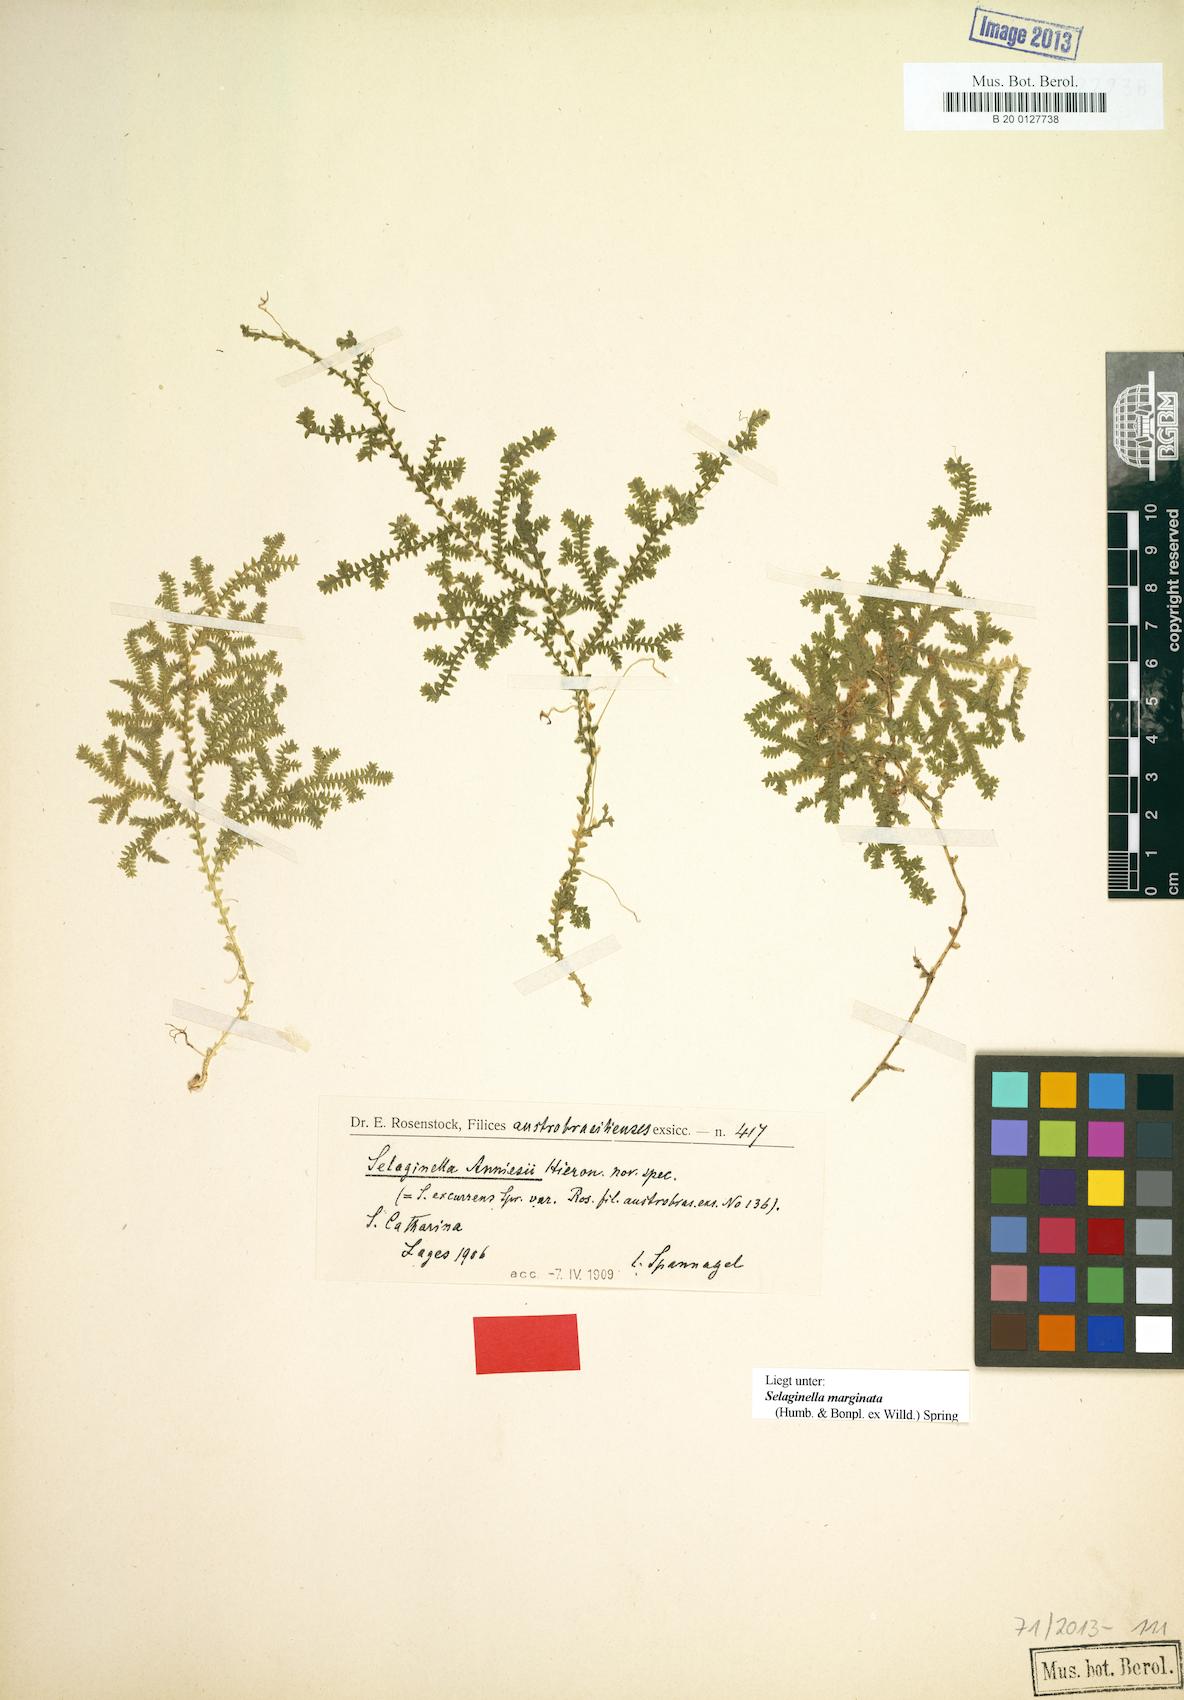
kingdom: Plantae
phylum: Tracheophyta
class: Lycopodiopsida
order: Selaginellales
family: Selaginellaceae
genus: Selaginella
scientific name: Selaginella marginata
